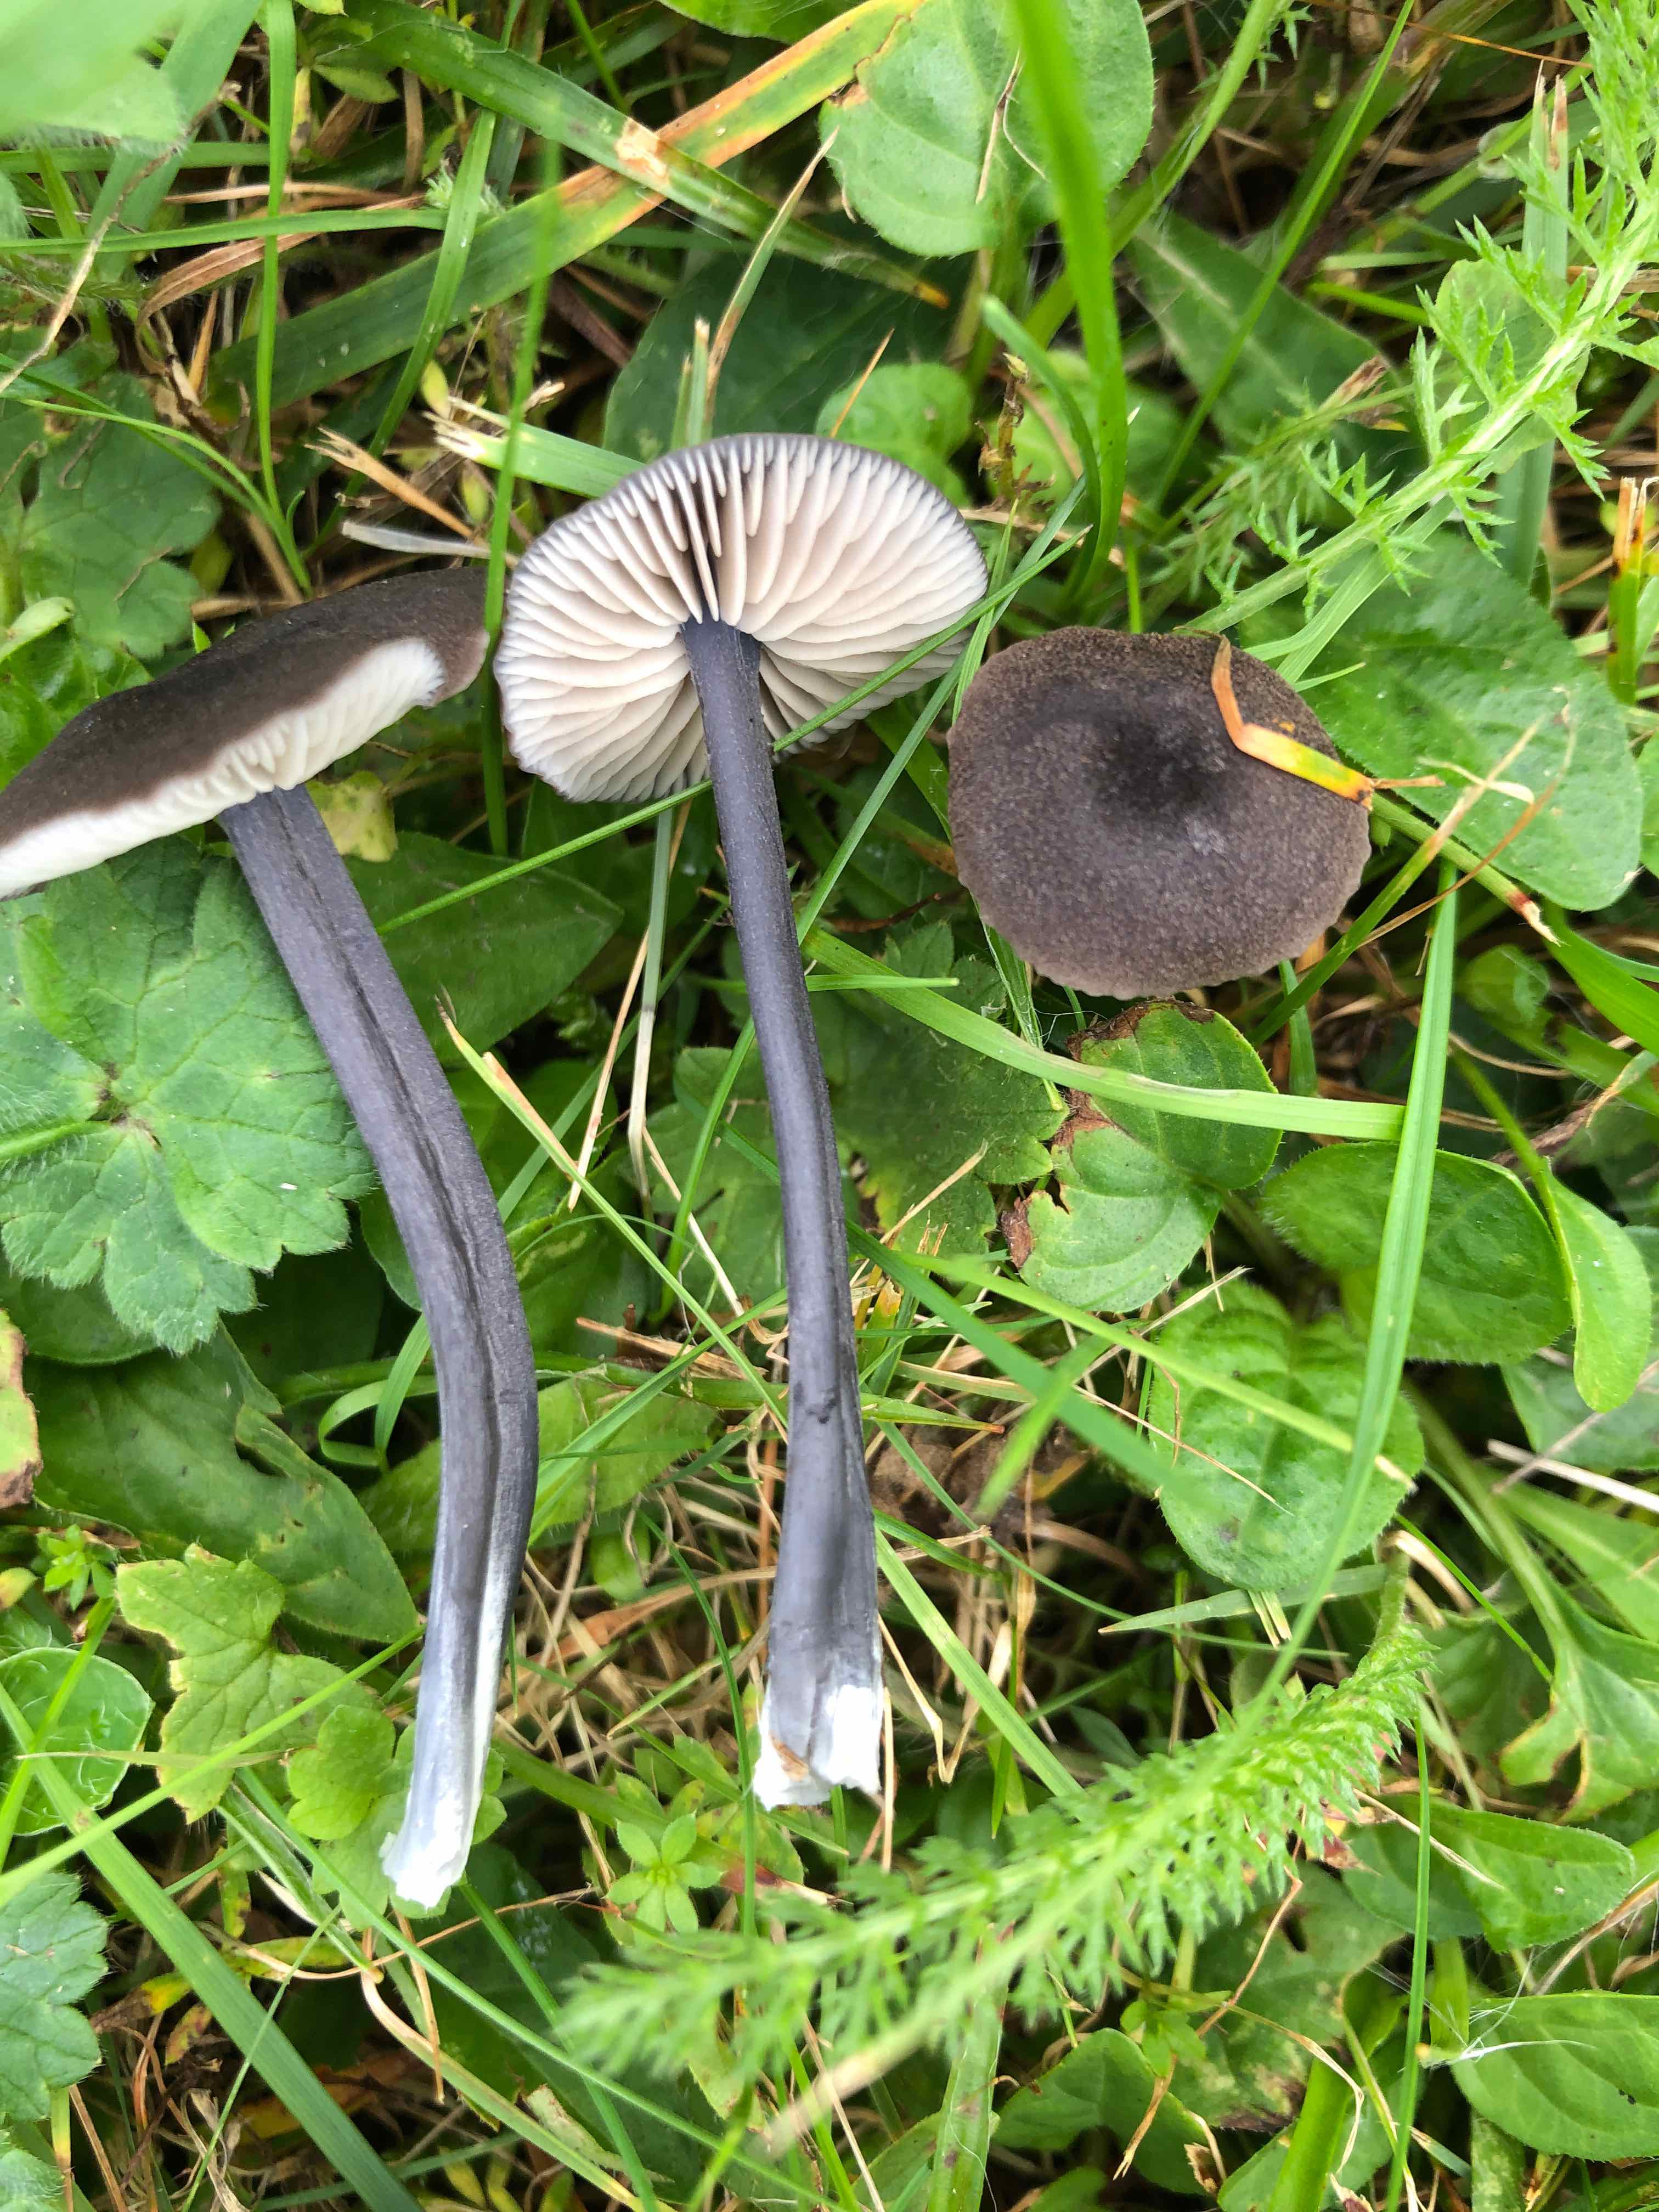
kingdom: Fungi
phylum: Basidiomycota
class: Agaricomycetes
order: Agaricales
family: Entolomataceae
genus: Entoloma
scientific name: Entoloma atrocoeruleum
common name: sortblå rødblad
